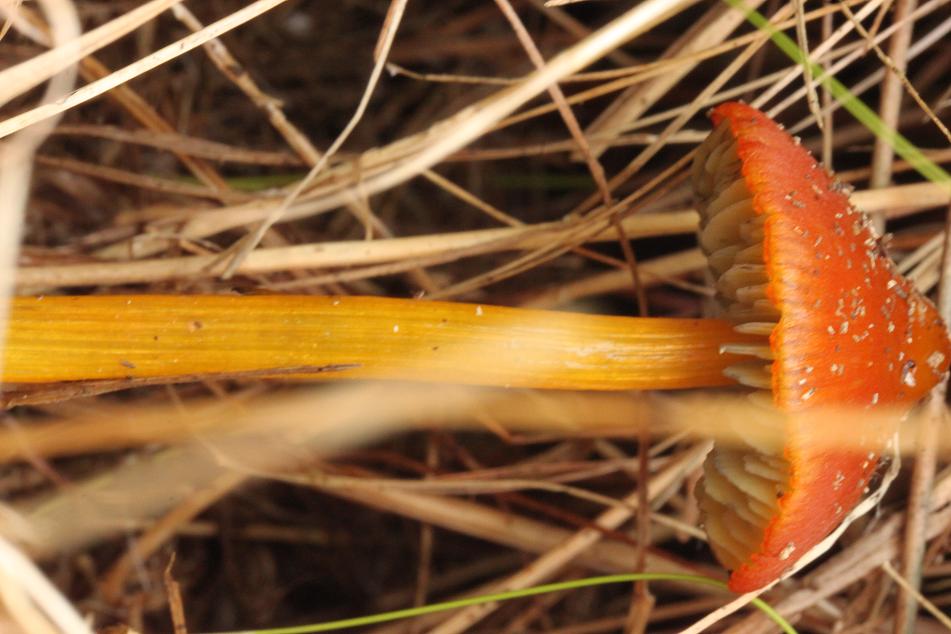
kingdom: Fungi
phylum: Basidiomycota
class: Agaricomycetes
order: Agaricales
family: Hygrophoraceae
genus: Hygrocybe
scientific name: Hygrocybe conica
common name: kegle-vokshat
